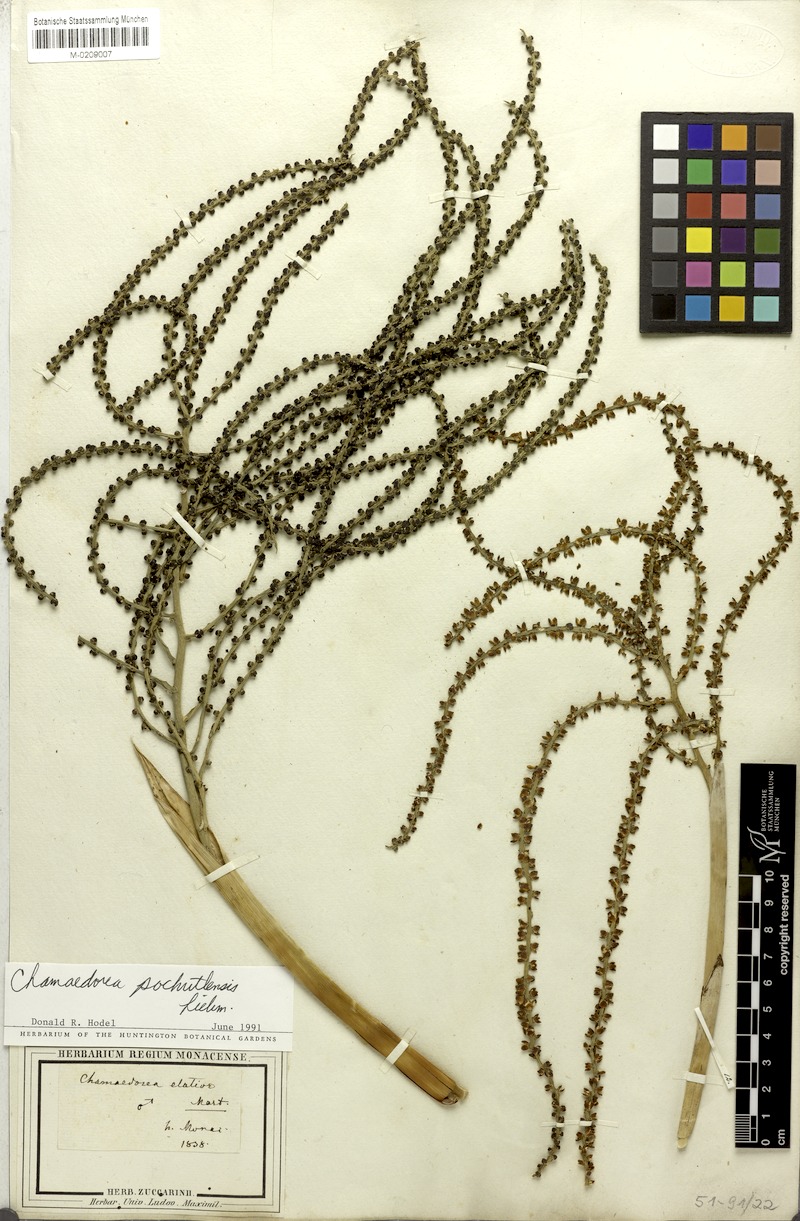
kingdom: Plantae
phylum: Tracheophyta
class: Liliopsida
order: Arecales
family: Arecaceae
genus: Chamaedorea
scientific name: Chamaedorea pochutlensis
